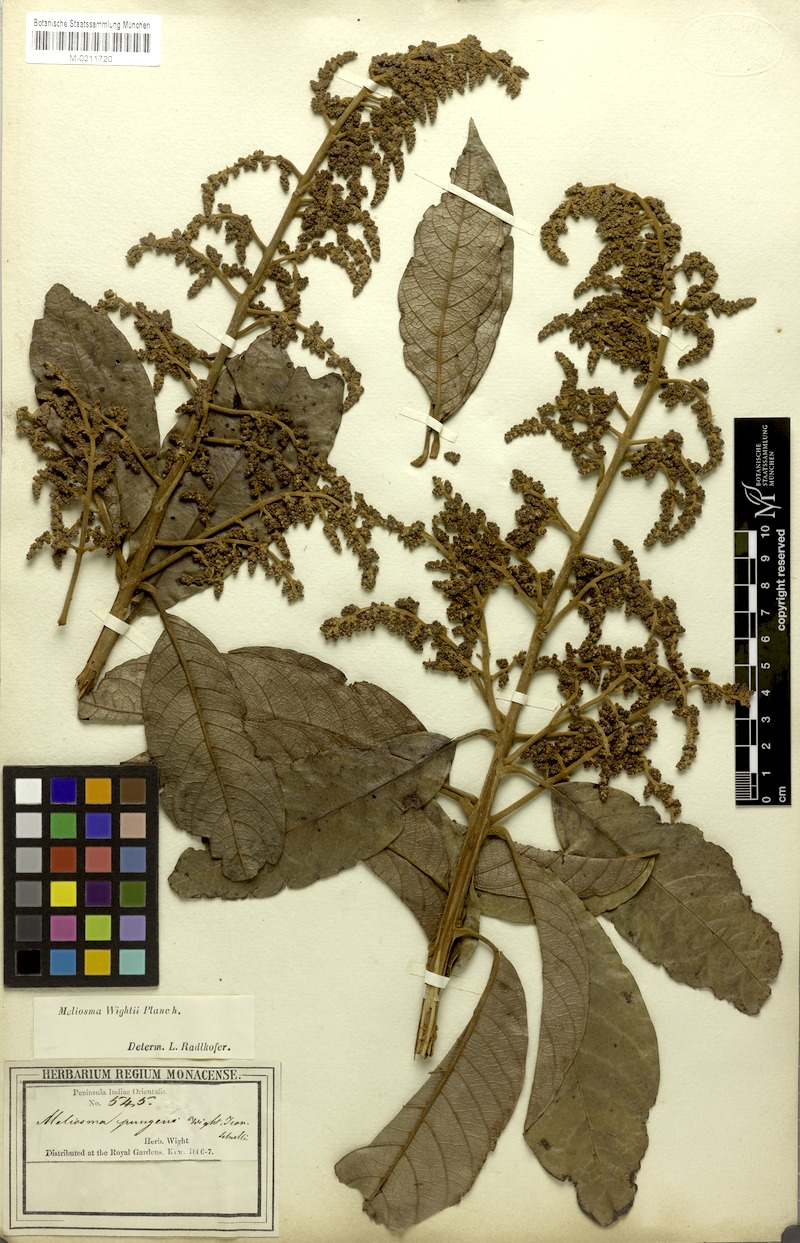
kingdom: Plantae
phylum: Tracheophyta
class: Magnoliopsida
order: Proteales
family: Sabiaceae
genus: Meliosma
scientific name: Meliosma simplicifolia
